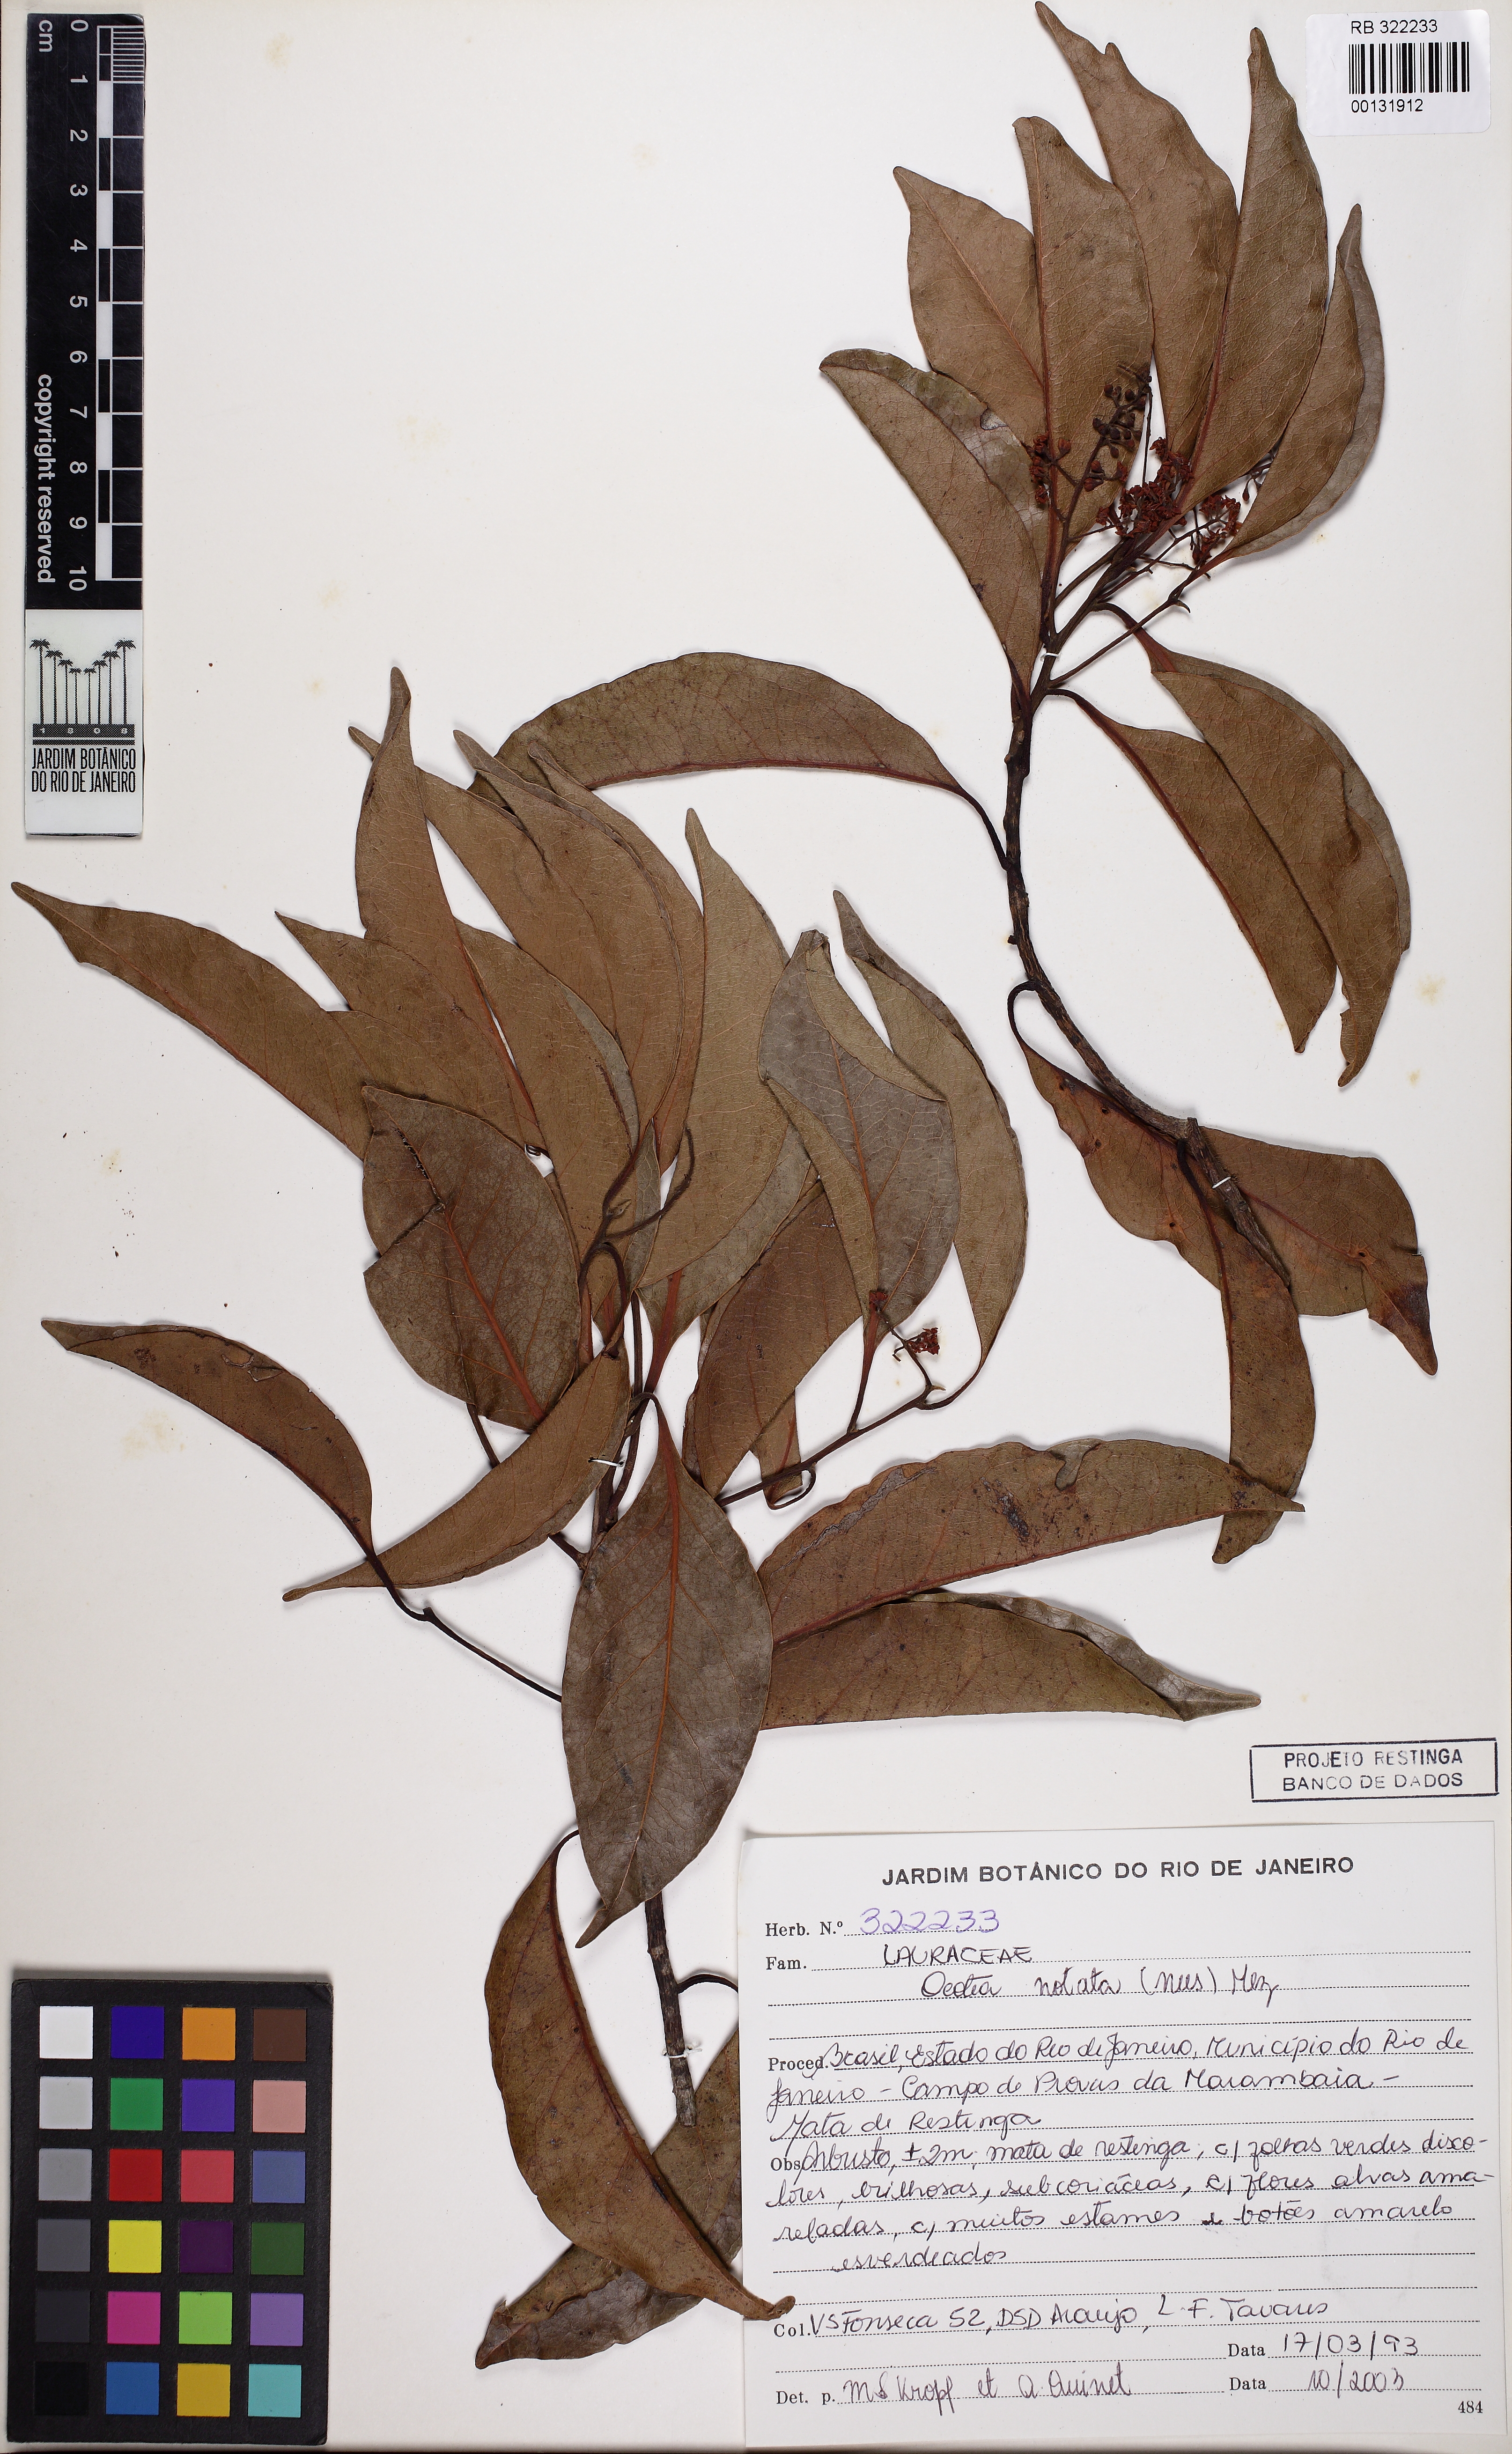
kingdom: Plantae
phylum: Tracheophyta
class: Magnoliopsida
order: Laurales
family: Lauraceae
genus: Mespilodaphne
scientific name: Mespilodaphne notata
